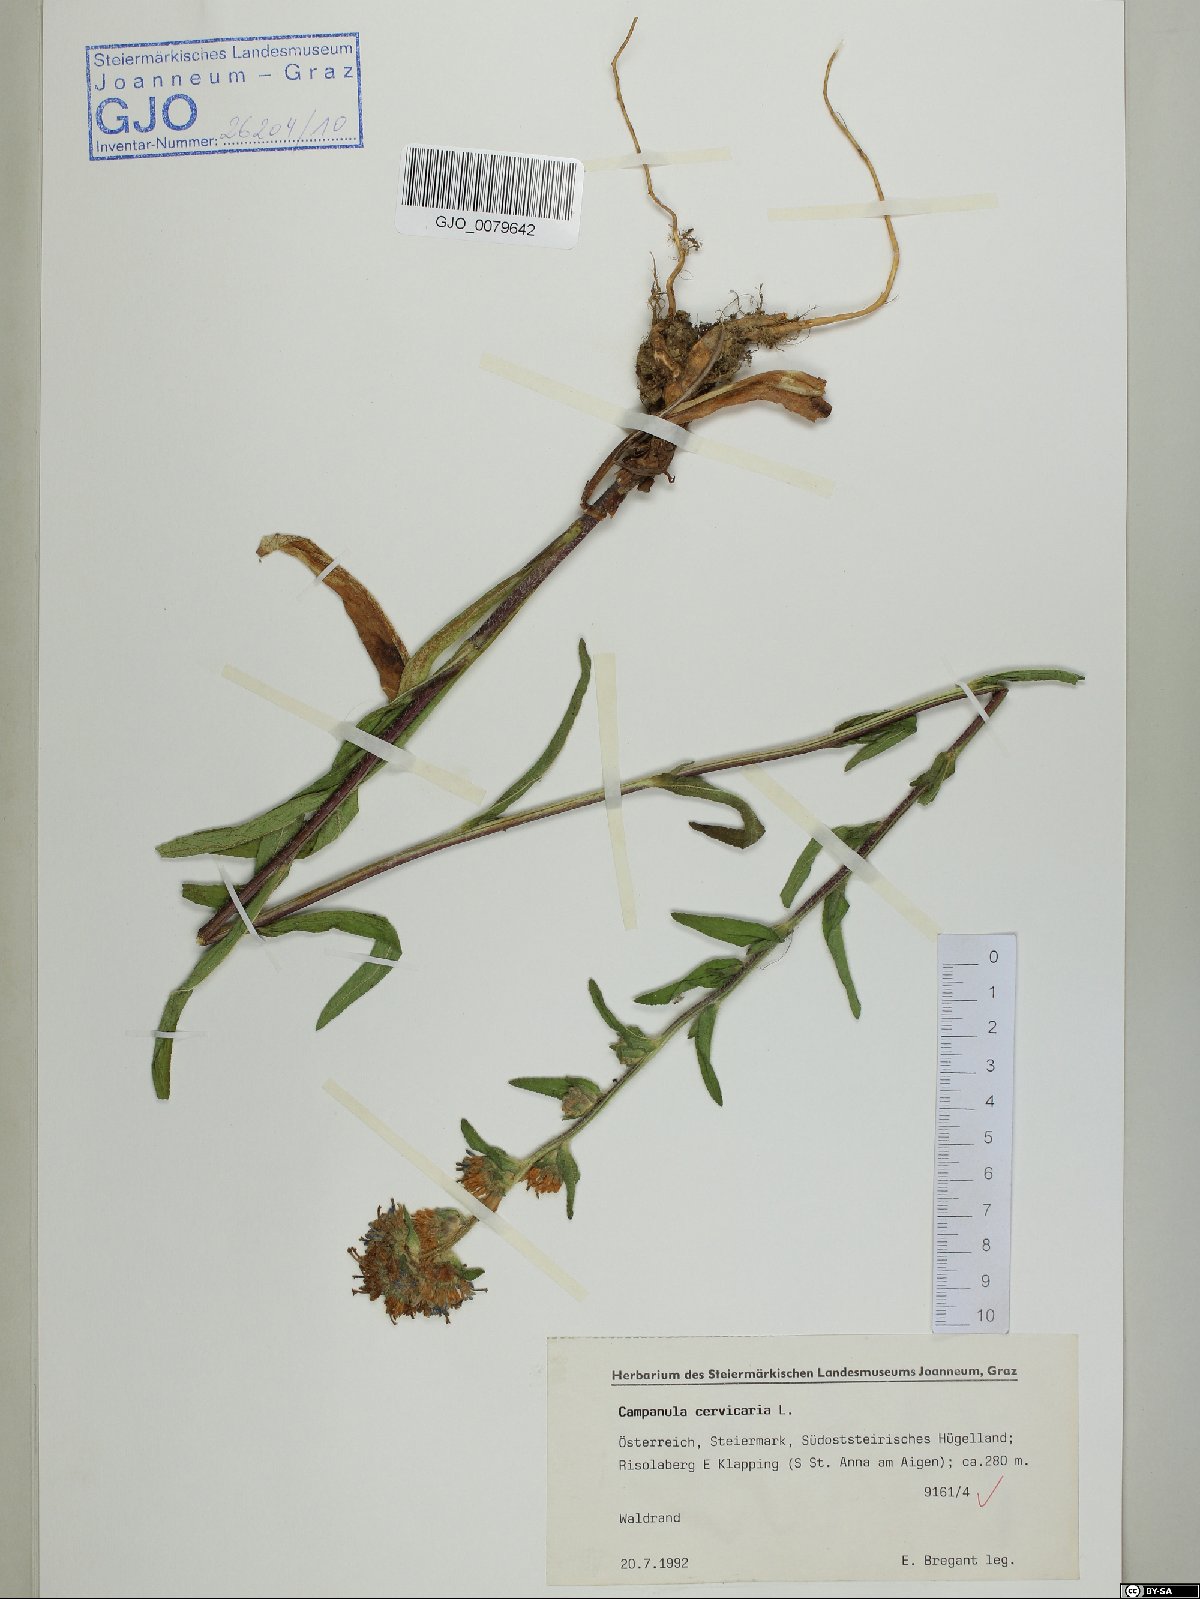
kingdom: Plantae
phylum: Tracheophyta
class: Magnoliopsida
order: Asterales
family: Campanulaceae
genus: Campanula
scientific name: Campanula cervicaria
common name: Bristly bellflower
